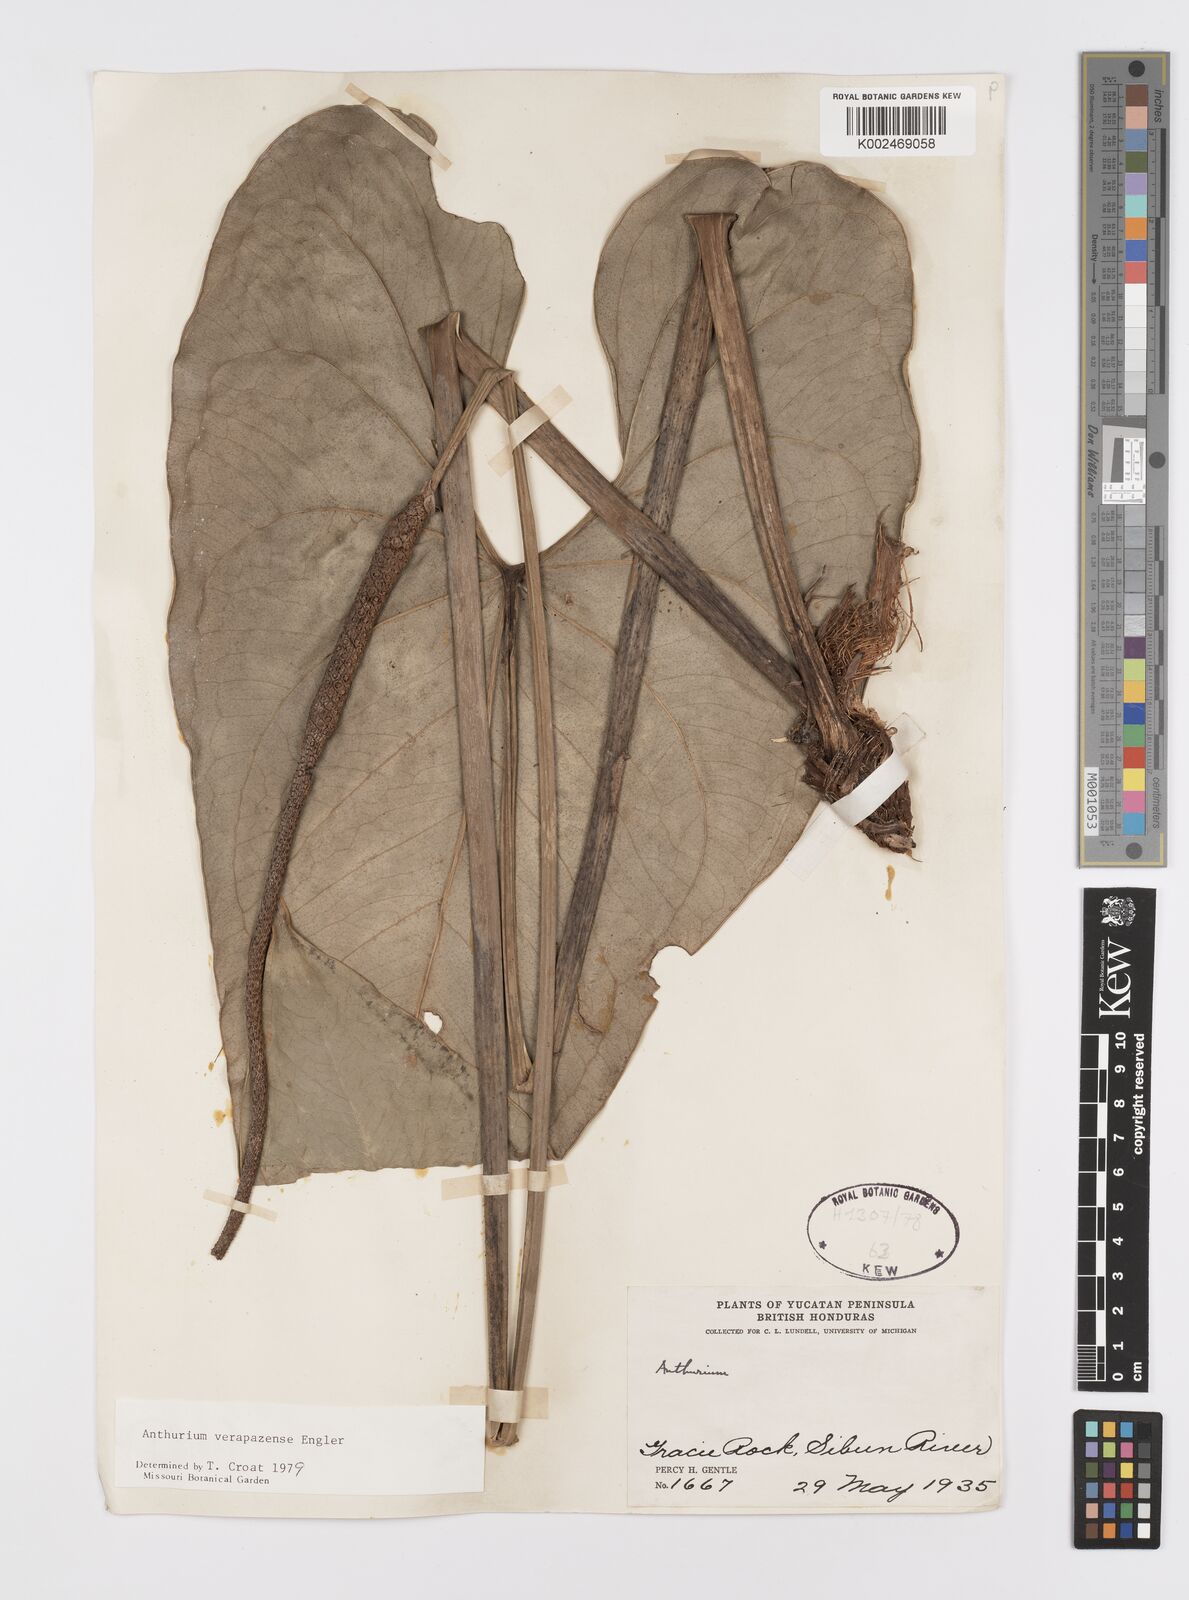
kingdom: Plantae
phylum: Tracheophyta
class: Liliopsida
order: Alismatales
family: Araceae
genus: Anthurium
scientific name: Anthurium verapazense
